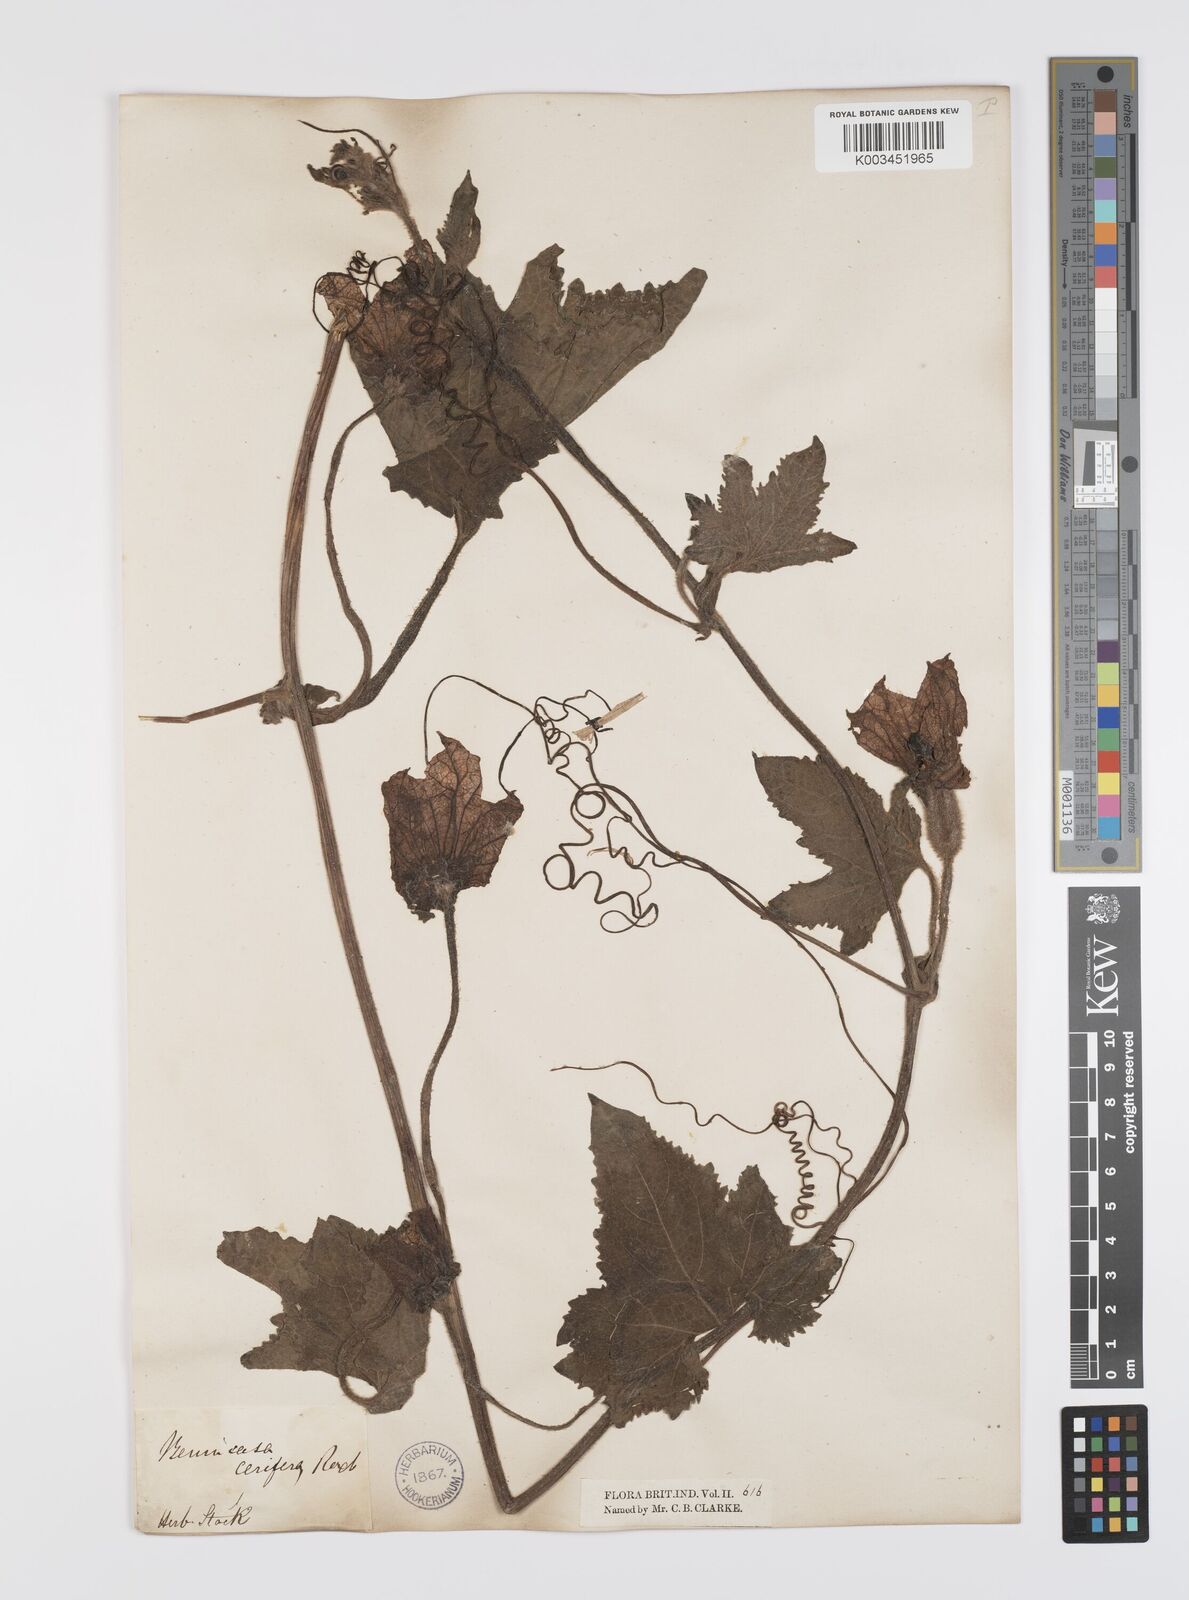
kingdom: Plantae
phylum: Tracheophyta
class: Magnoliopsida
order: Cucurbitales
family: Cucurbitaceae
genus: Benincasa
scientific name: Benincasa hispida
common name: Chinese-watermelon
